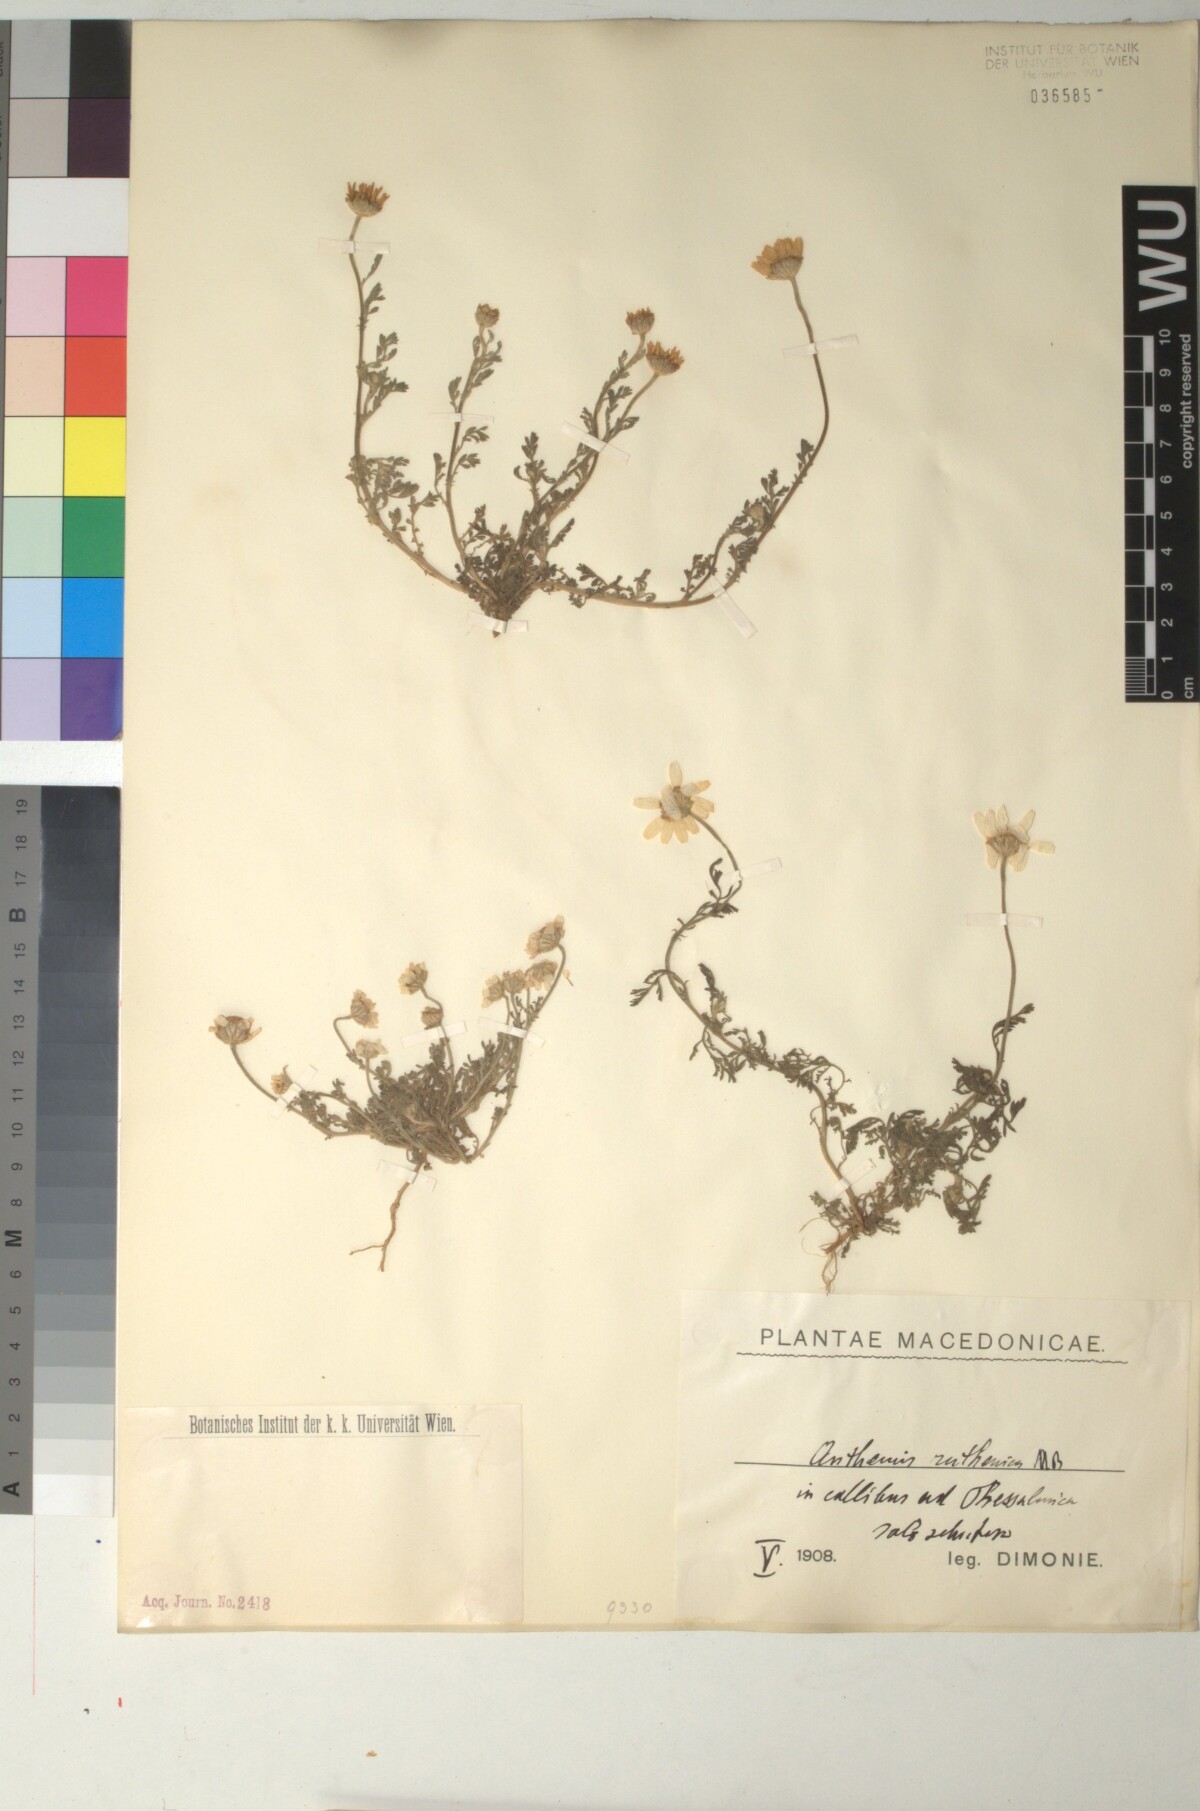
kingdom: Plantae
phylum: Tracheophyta
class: Magnoliopsida
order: Asterales
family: Asteraceae
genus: Anthemis
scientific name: Anthemis ruthenica
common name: Eastern chamomile
